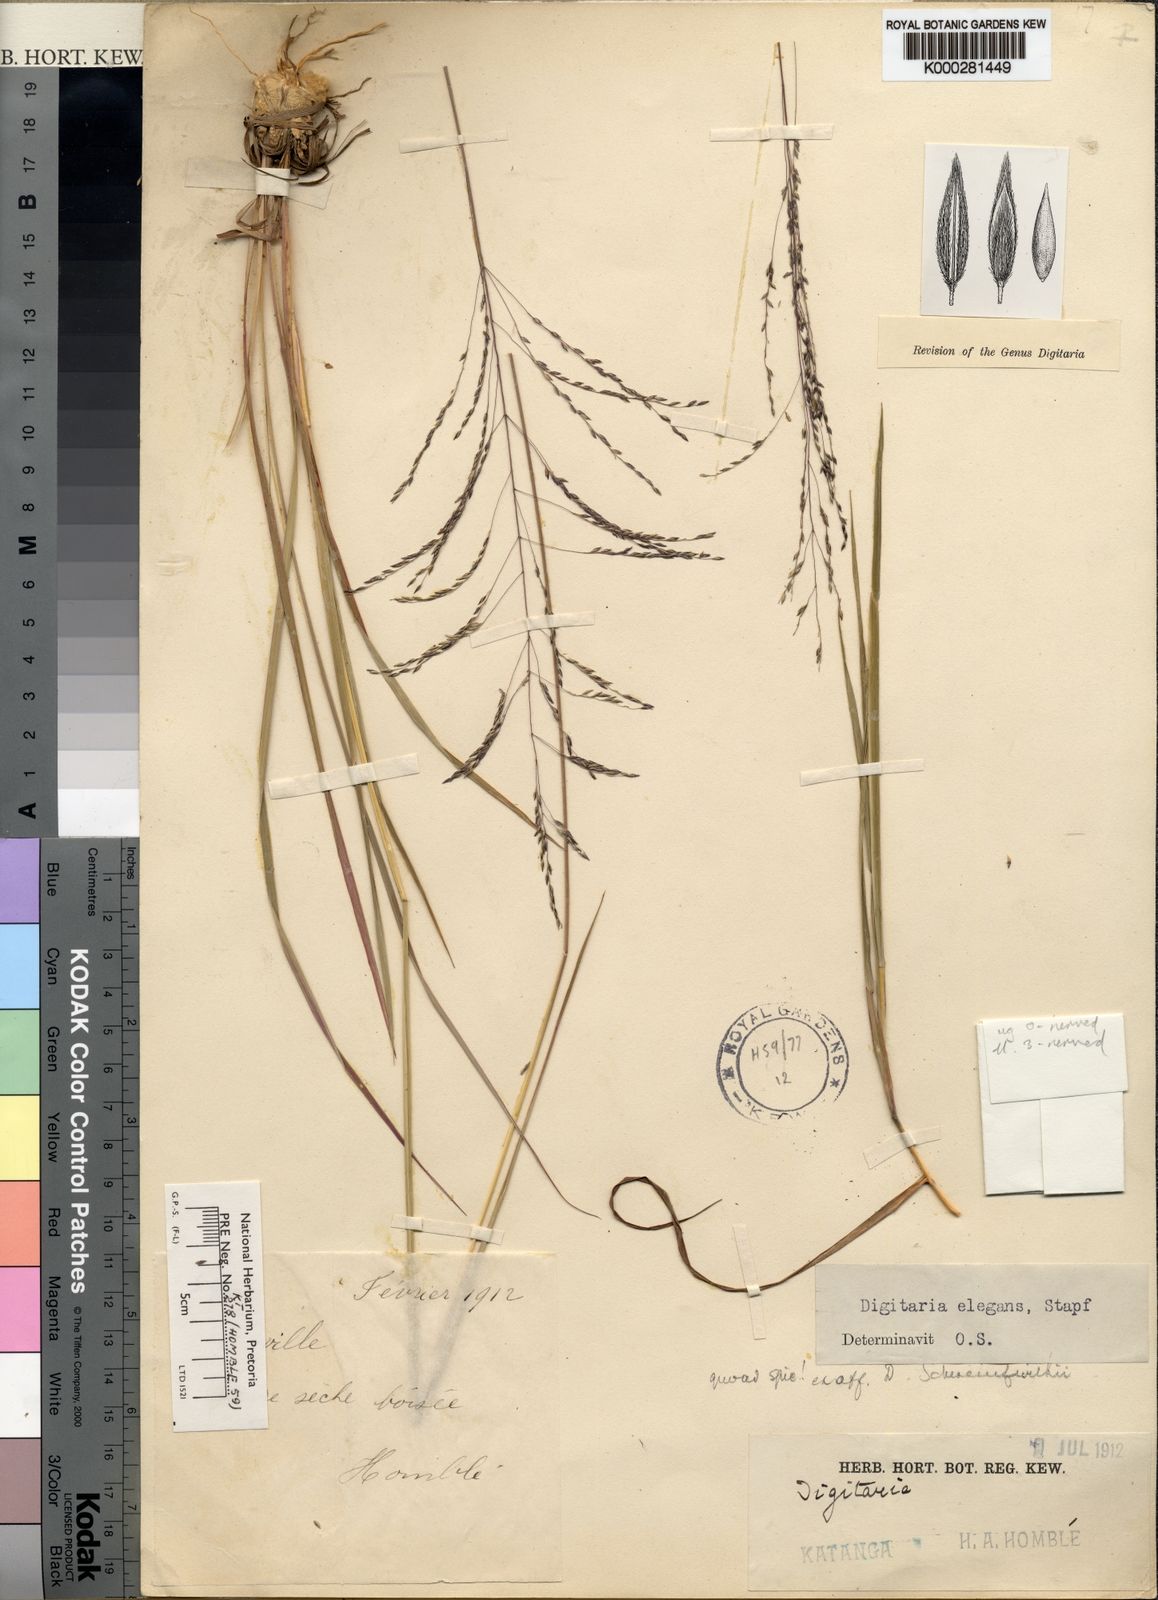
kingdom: Plantae
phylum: Tracheophyta
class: Liliopsida
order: Poales
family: Poaceae
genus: Digitaria
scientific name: Digitaria flaccida
